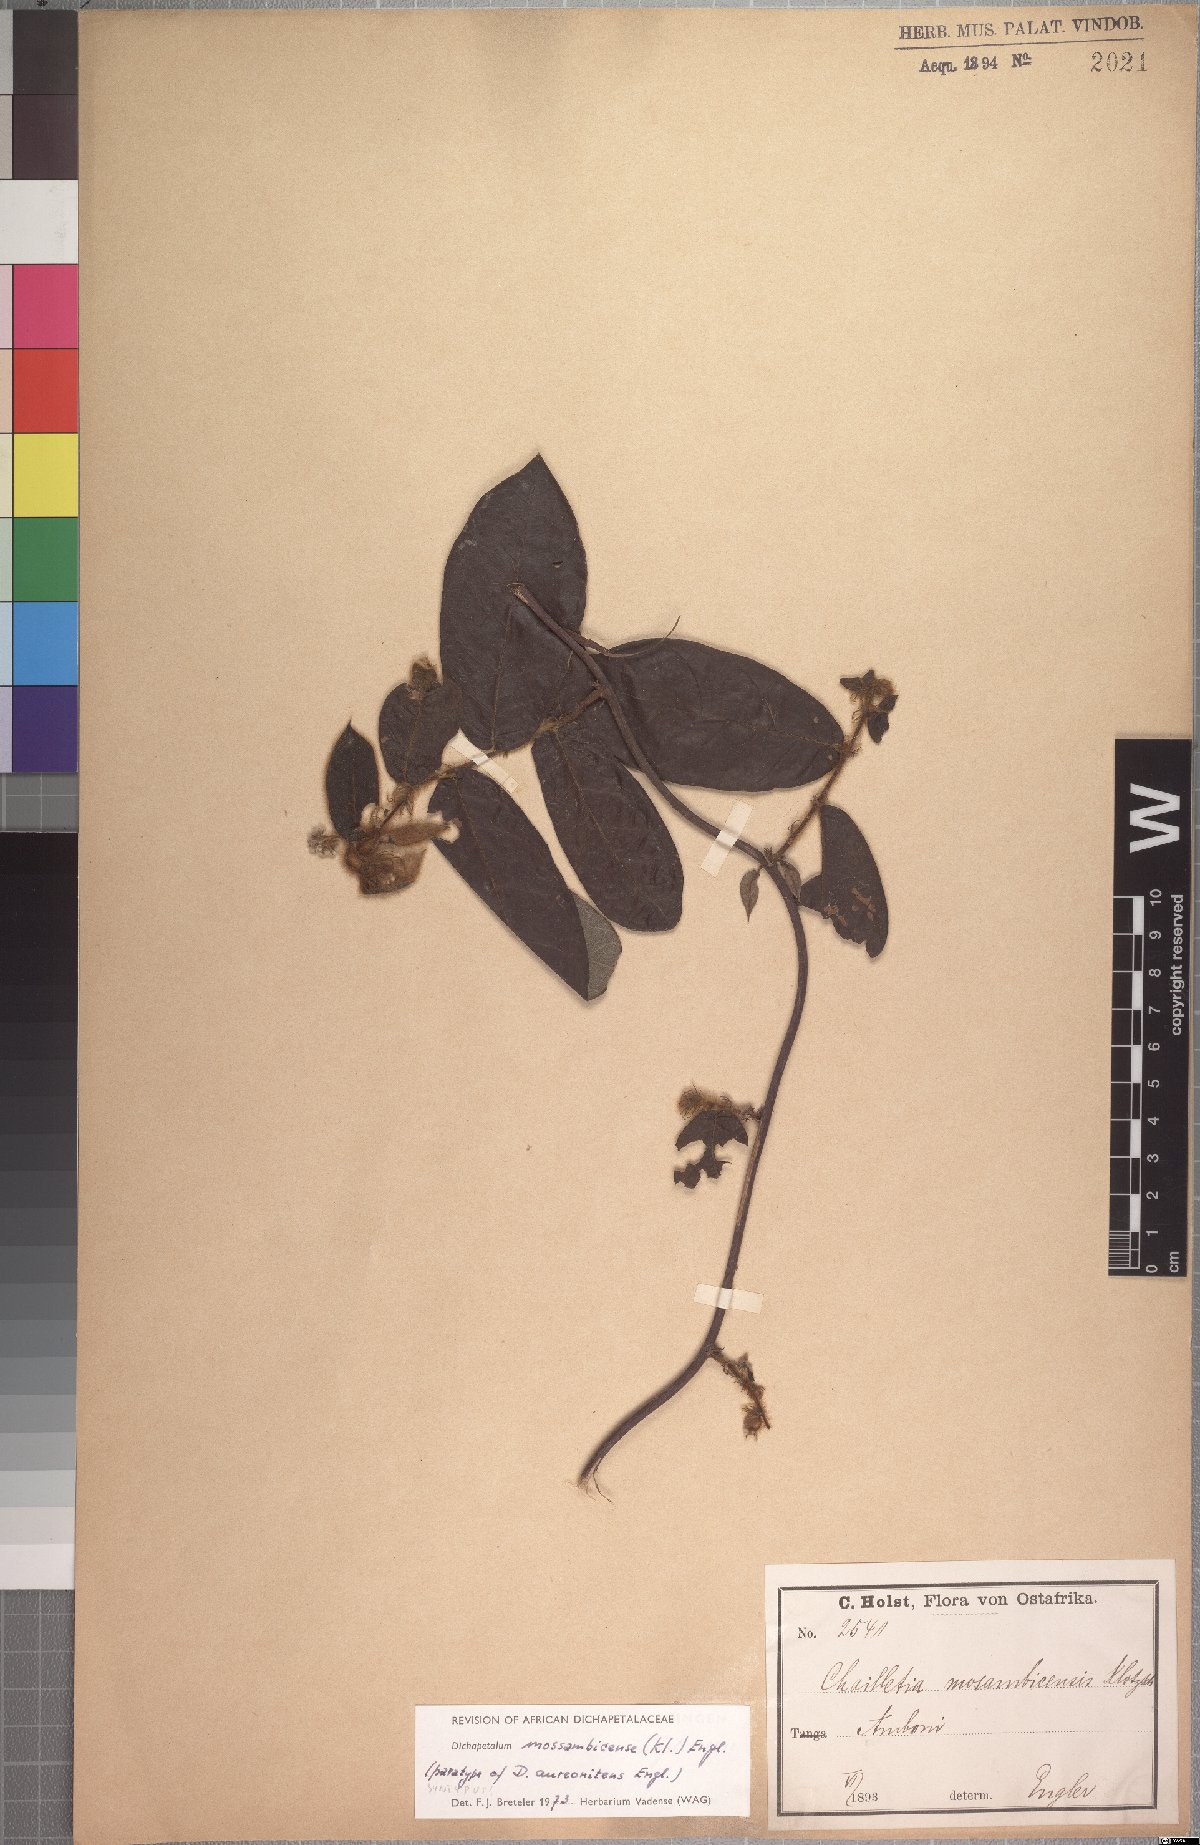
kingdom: Plantae
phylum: Tracheophyta
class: Magnoliopsida
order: Malpighiales
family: Dichapetalaceae
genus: Dichapetalum
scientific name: Dichapetalum mossambicense
